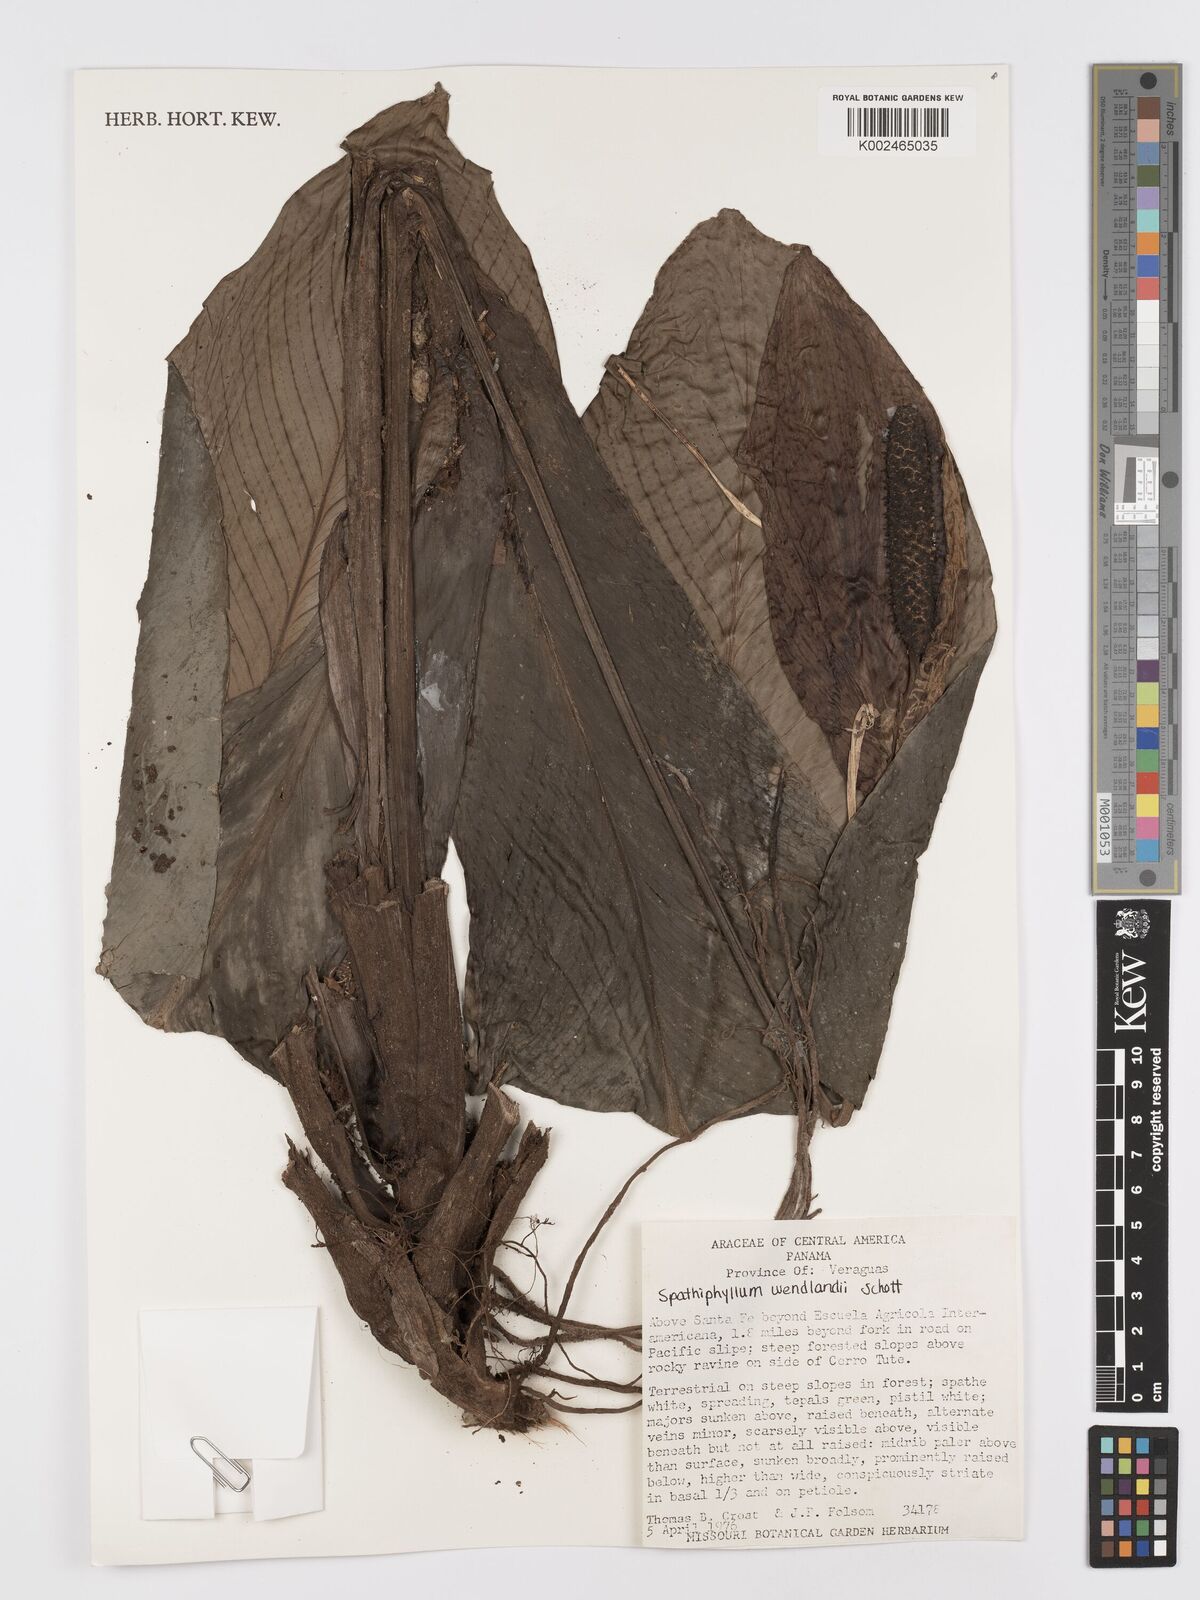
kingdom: Plantae
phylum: Tracheophyta
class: Liliopsida
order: Alismatales
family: Araceae
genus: Spathiphyllum
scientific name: Spathiphyllum wendlandii
